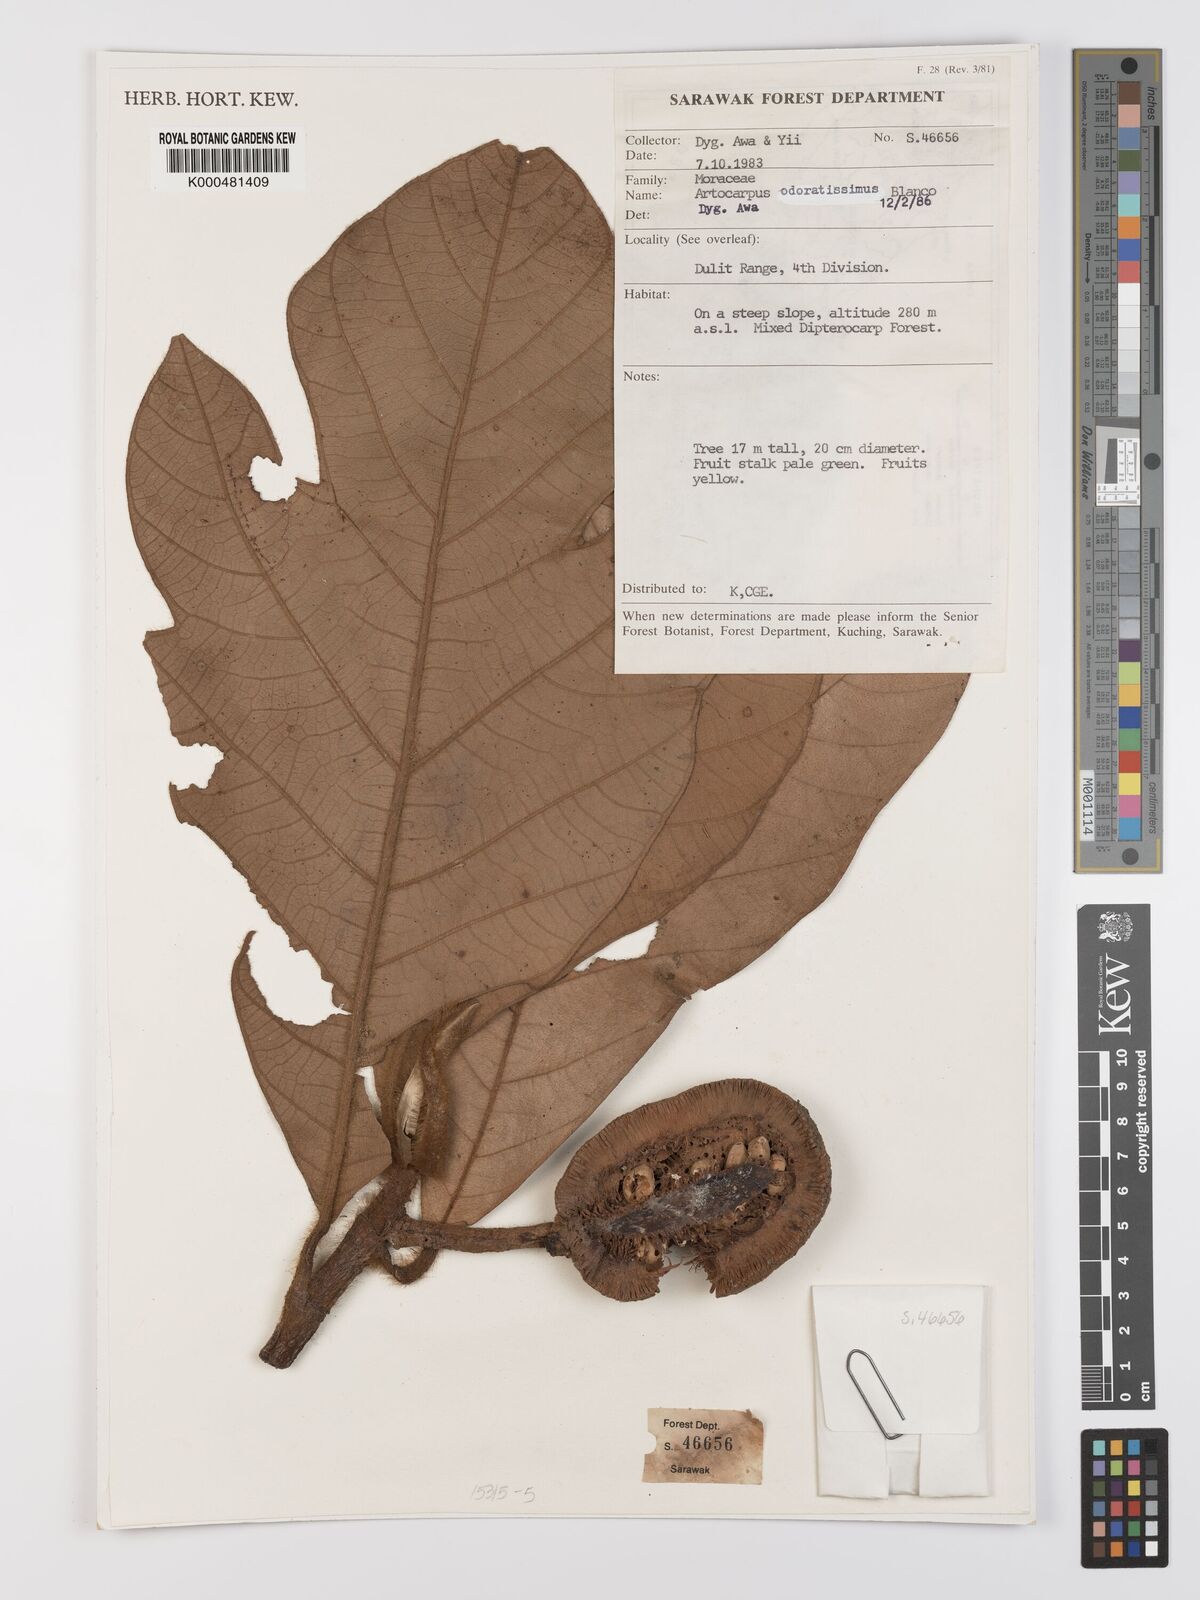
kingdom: Plantae
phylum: Tracheophyta
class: Magnoliopsida
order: Rosales
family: Moraceae
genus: Artocarpus
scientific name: Artocarpus odoratissimus
